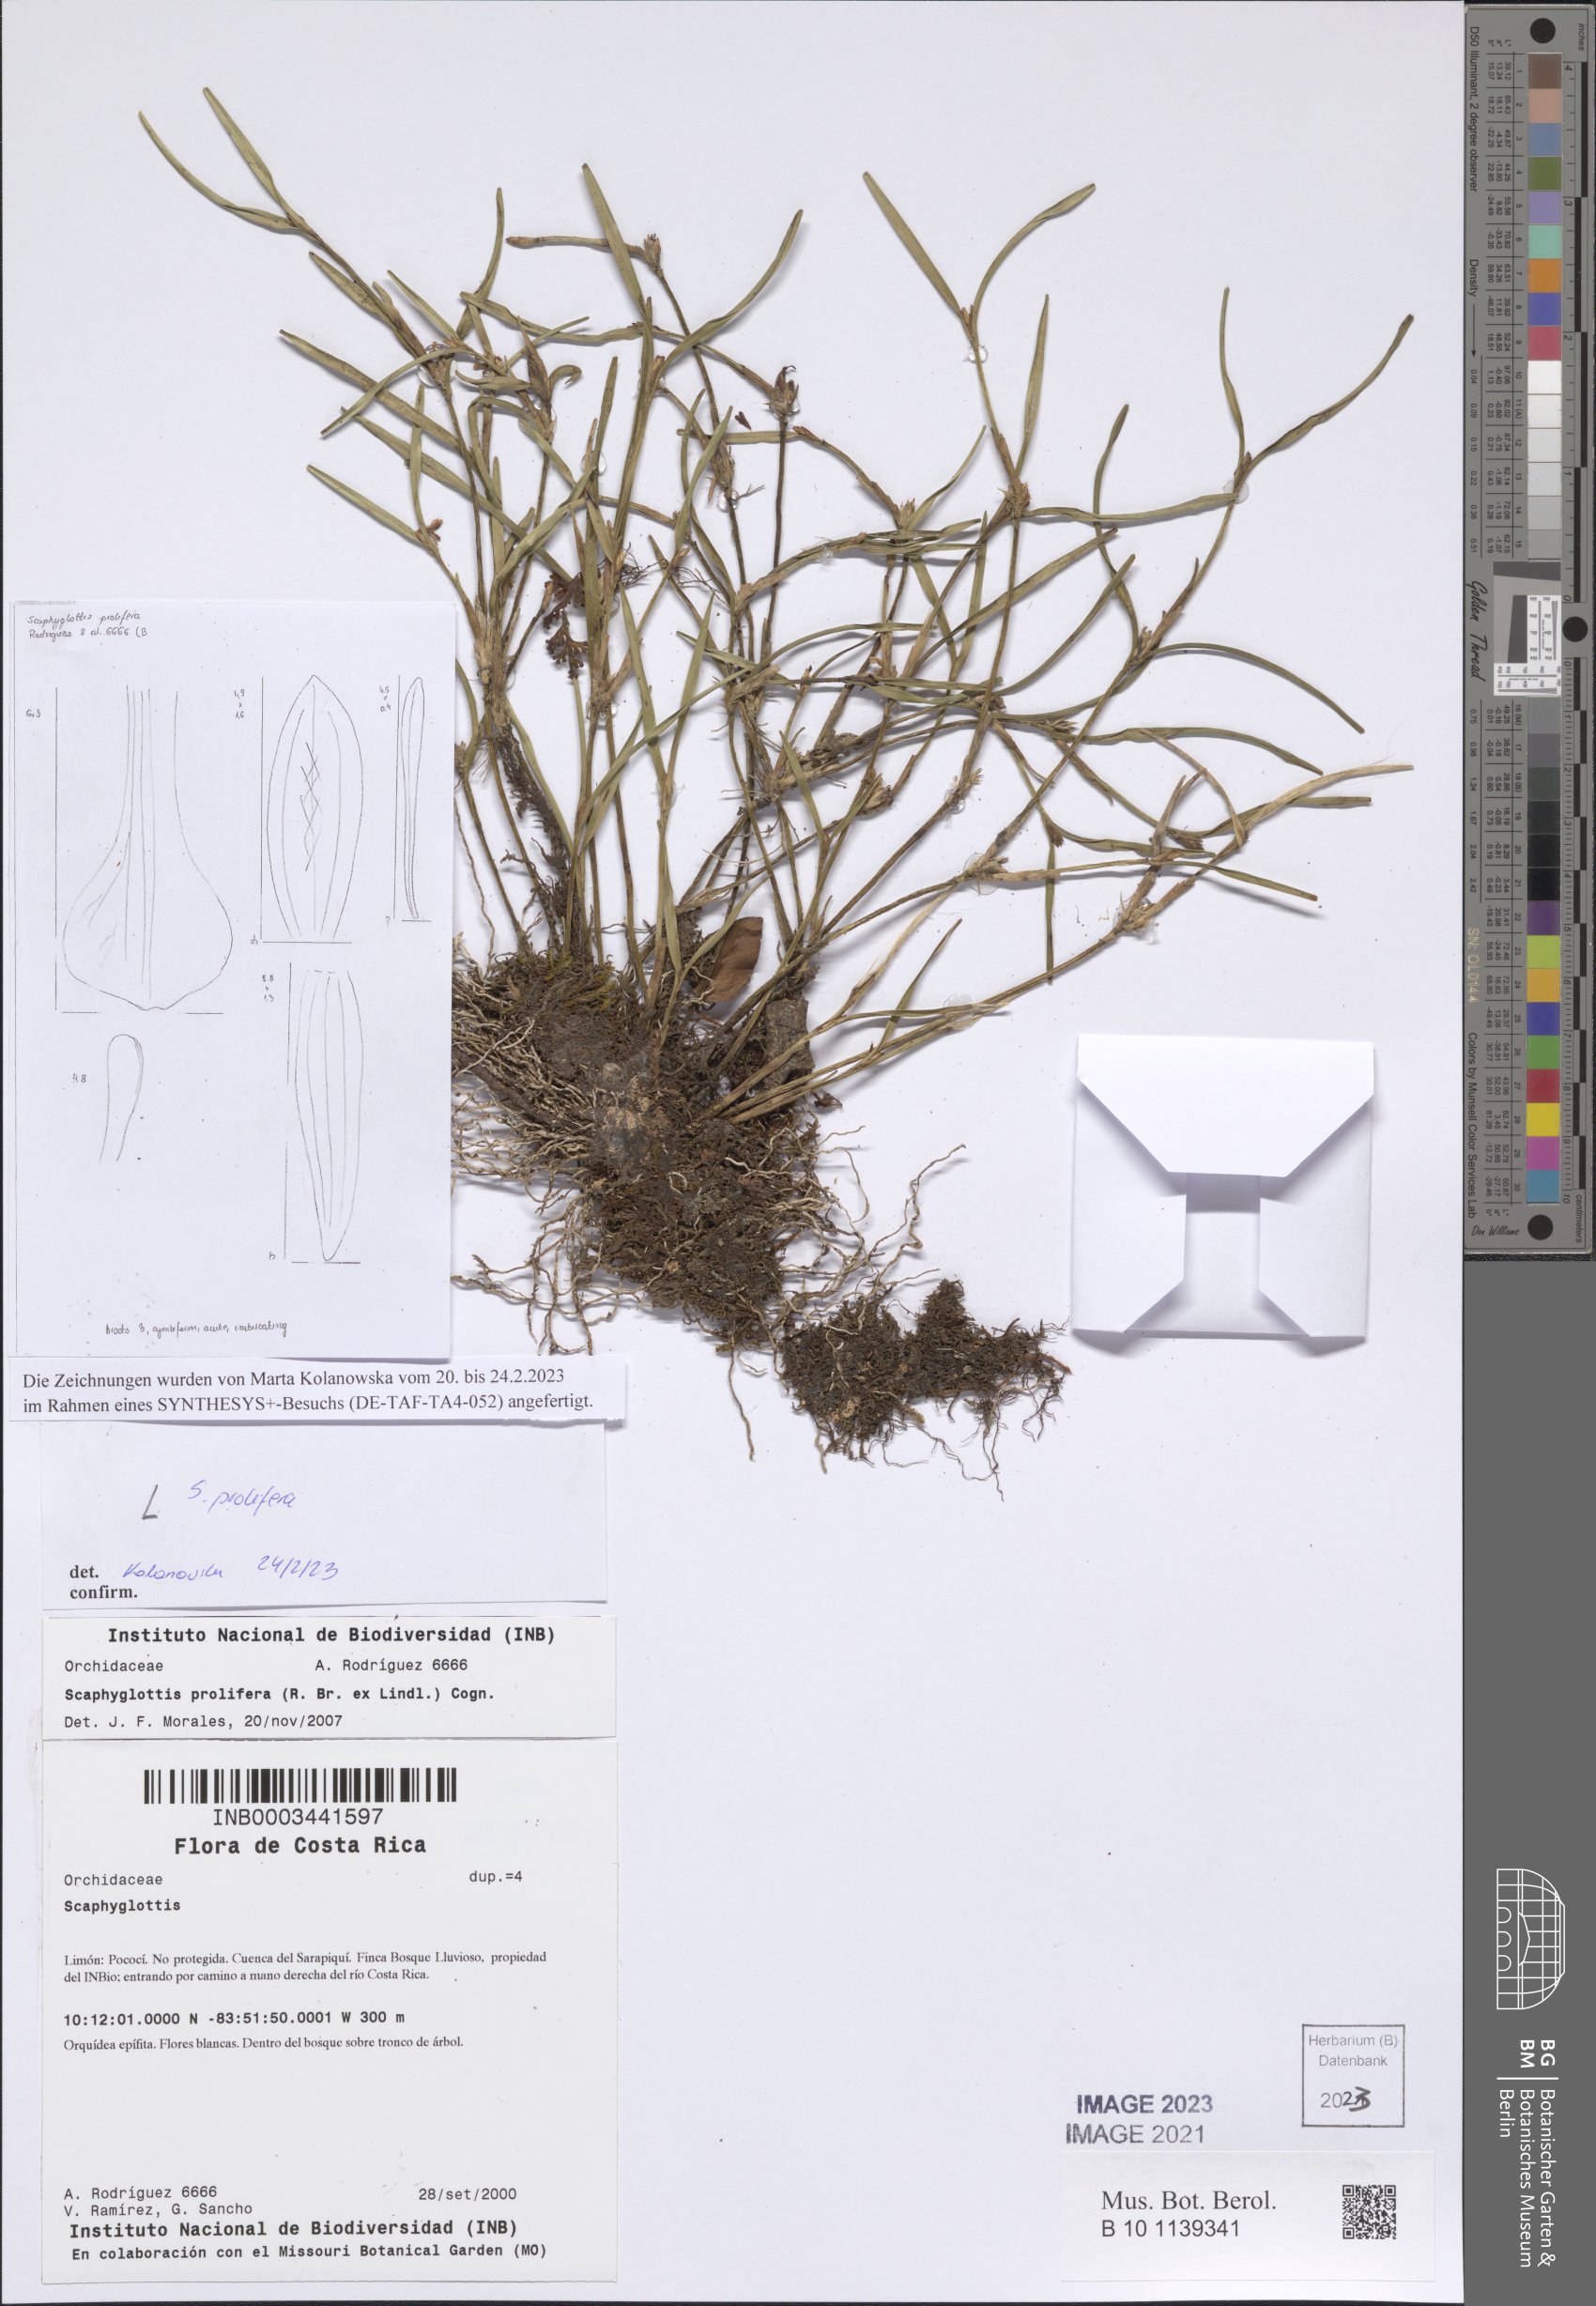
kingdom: Plantae
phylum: Tracheophyta
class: Liliopsida
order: Asparagales
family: Orchidaceae
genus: Scaphyglottis
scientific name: Scaphyglottis prolifera
